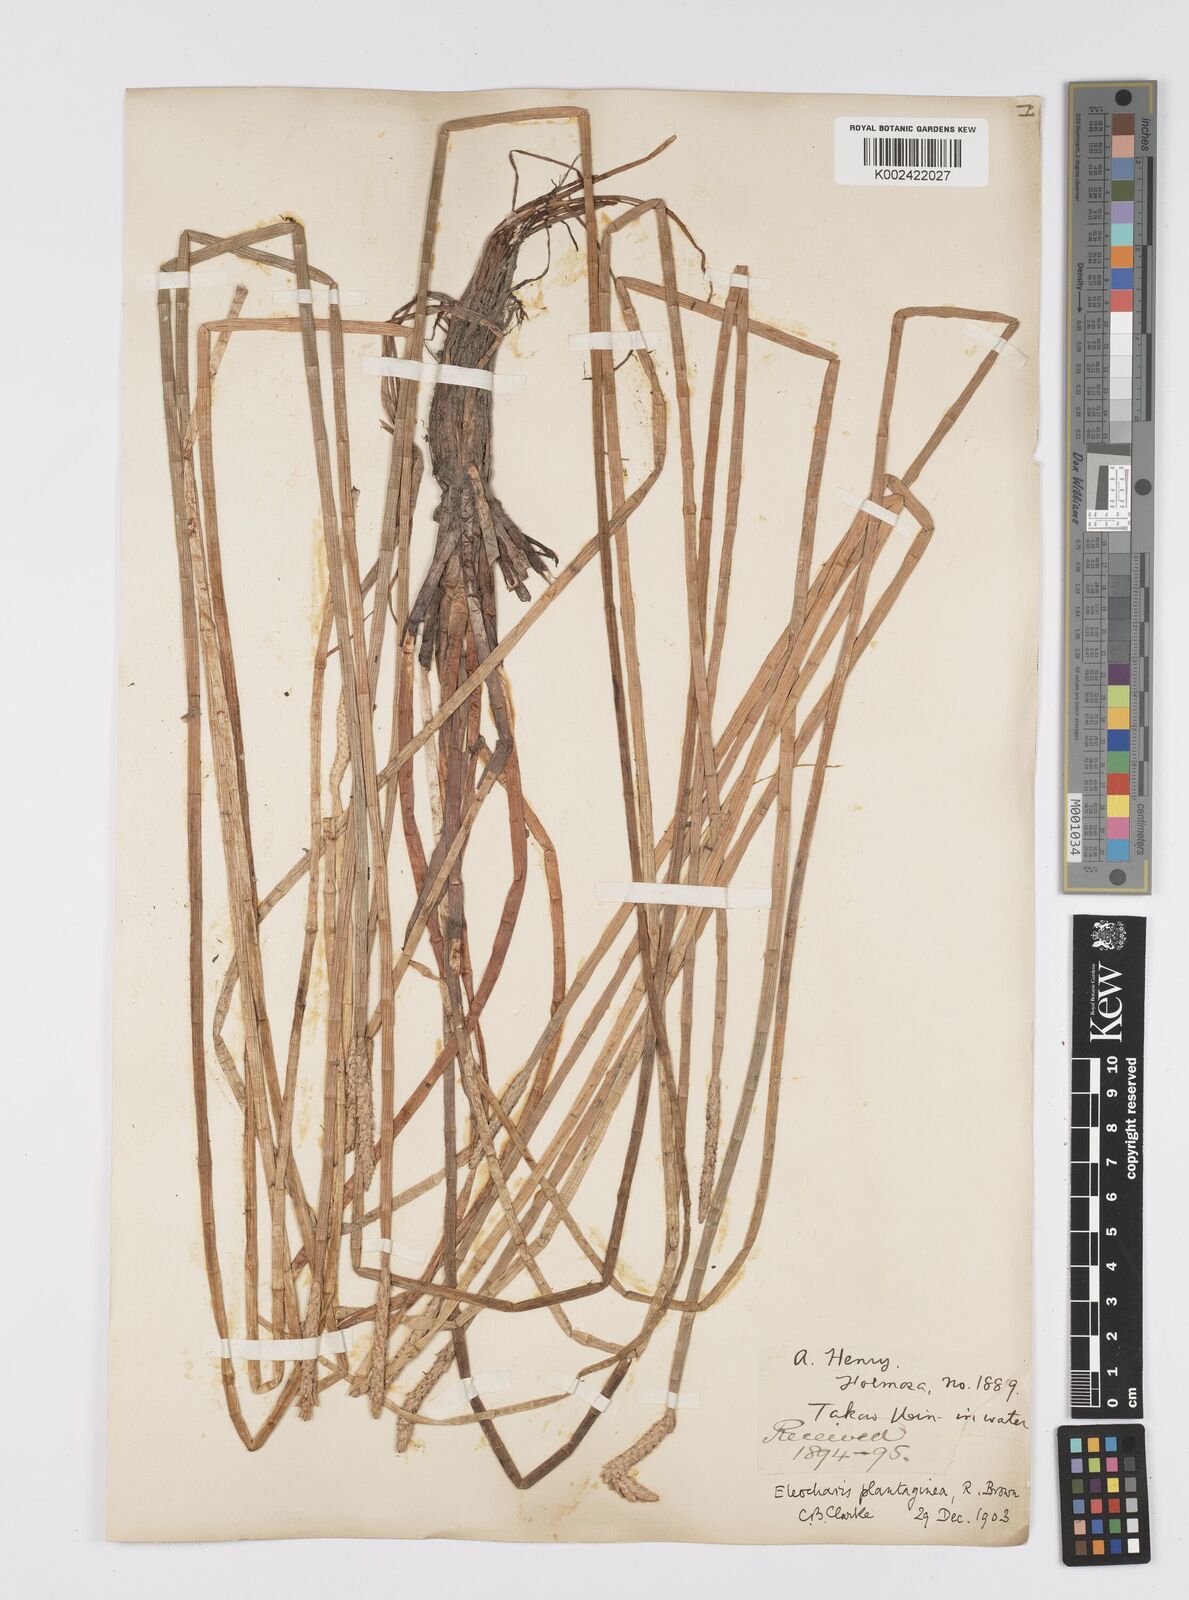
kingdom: Plantae
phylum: Tracheophyta
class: Liliopsida
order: Poales
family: Cyperaceae
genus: Eleocharis
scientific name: Eleocharis dulcis
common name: Chinese water chestnut
